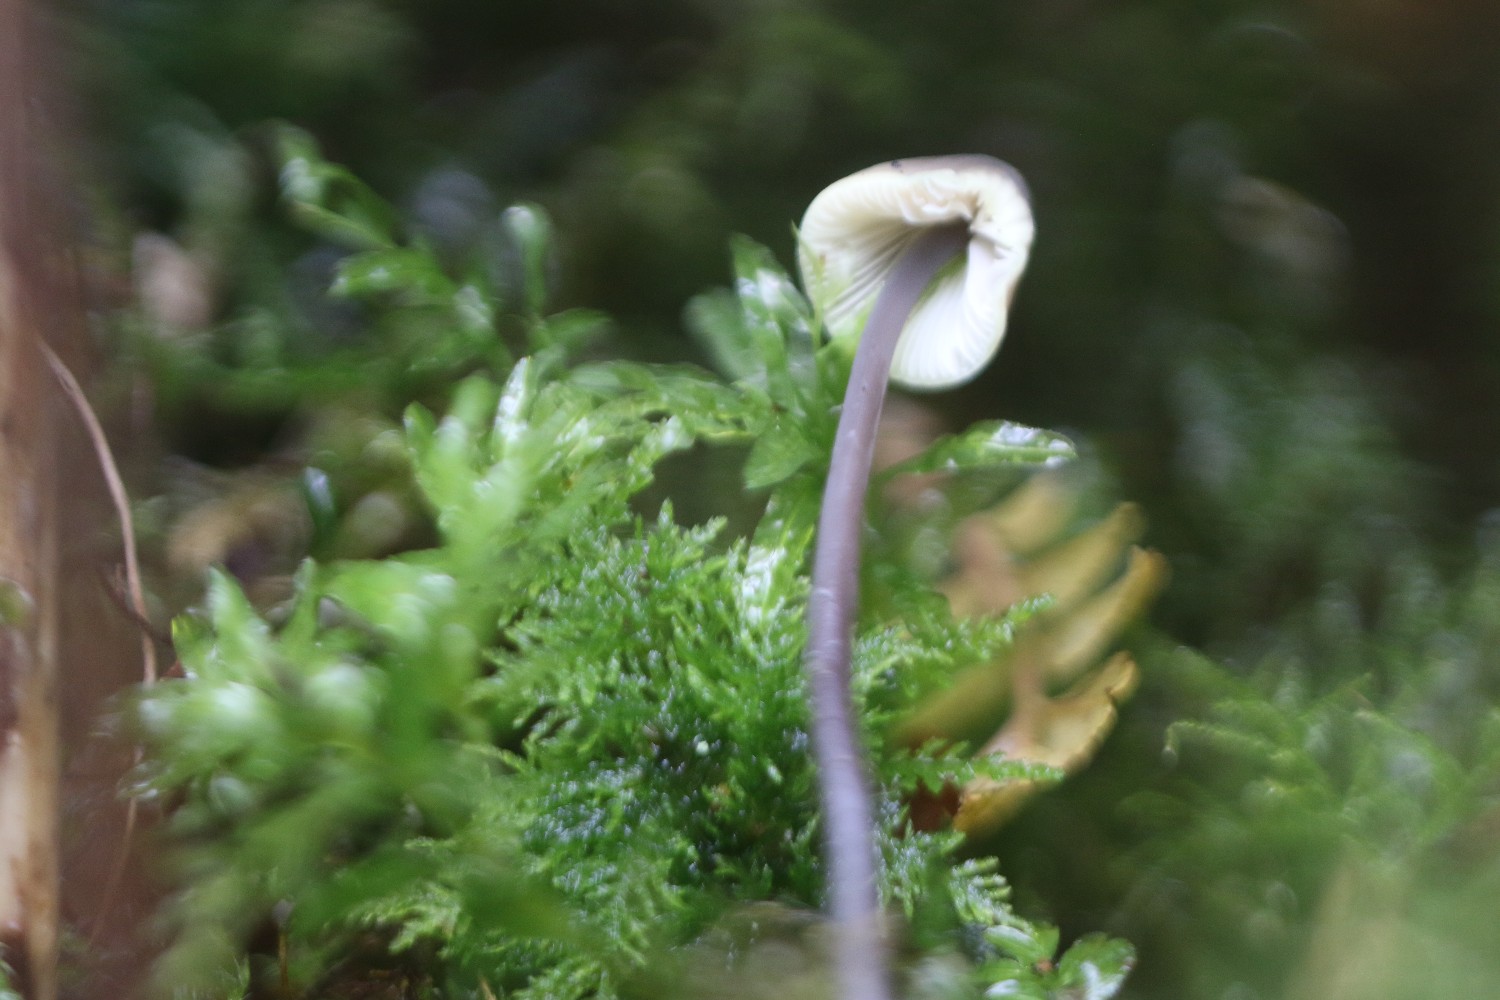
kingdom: Fungi
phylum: Basidiomycota
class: Agaricomycetes
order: Agaricales
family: Mycenaceae
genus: Mycena
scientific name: Mycena arcangeliana
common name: oliven-huesvamp
